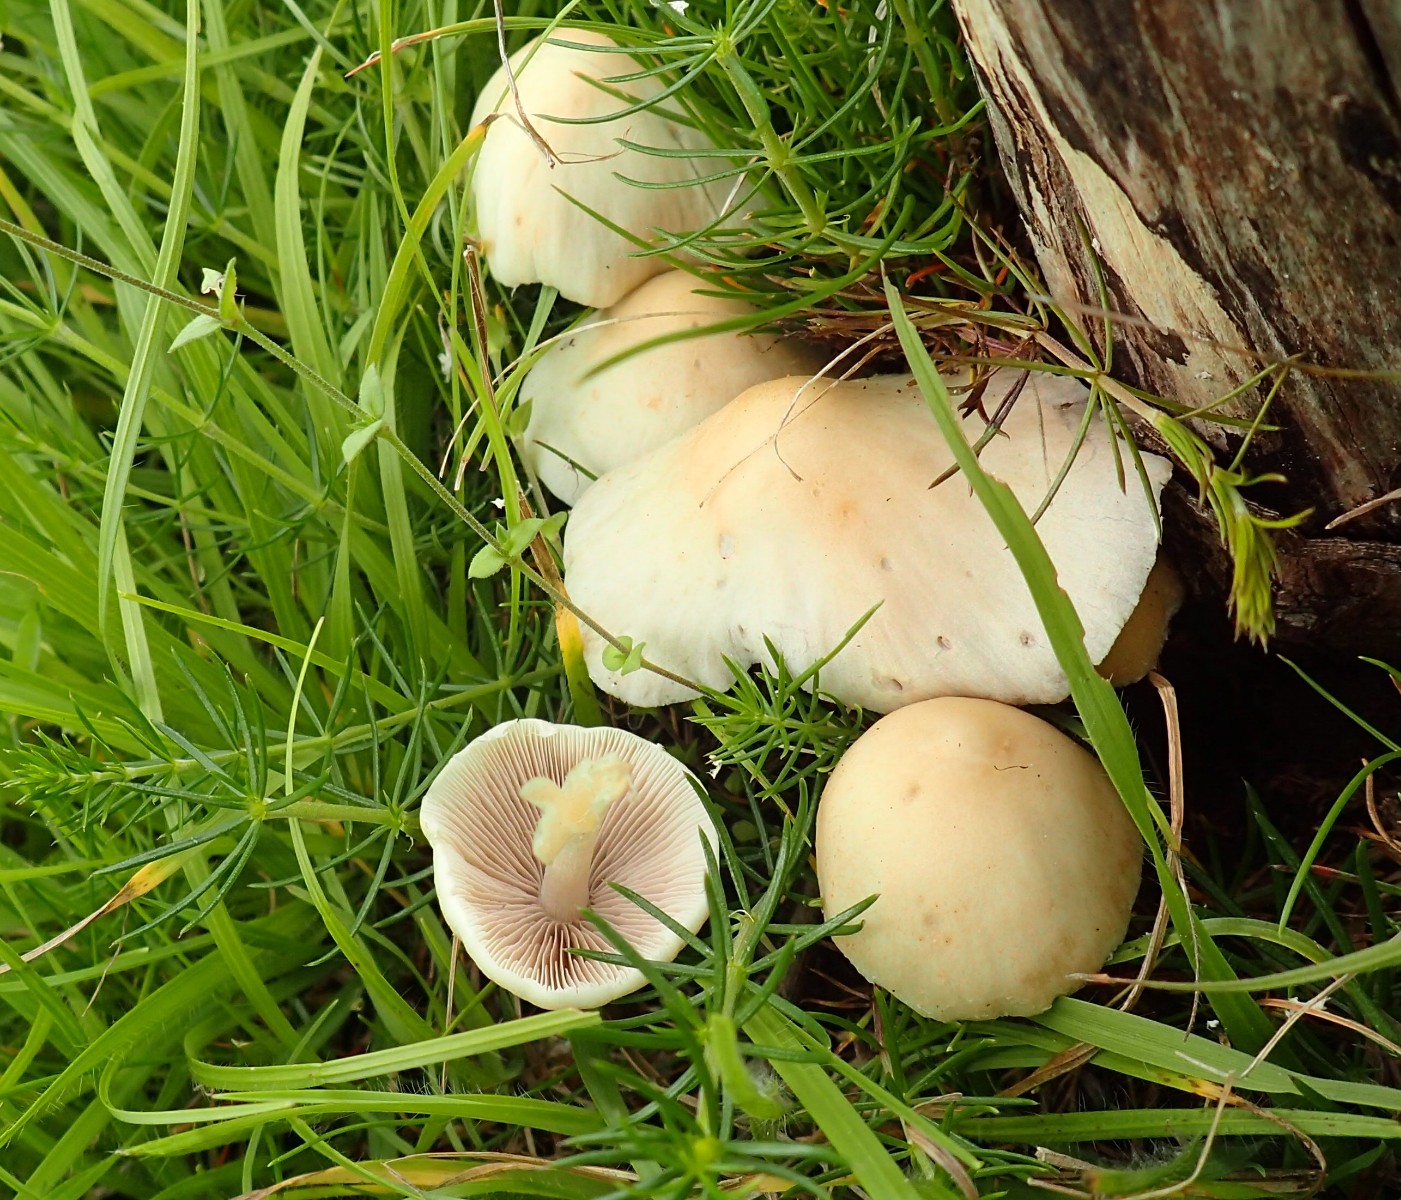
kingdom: Fungi
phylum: Basidiomycota
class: Agaricomycetes
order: Agaricales
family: Psathyrellaceae
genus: Candolleomyces
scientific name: Candolleomyces candolleanus
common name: Candolles mørkhat
